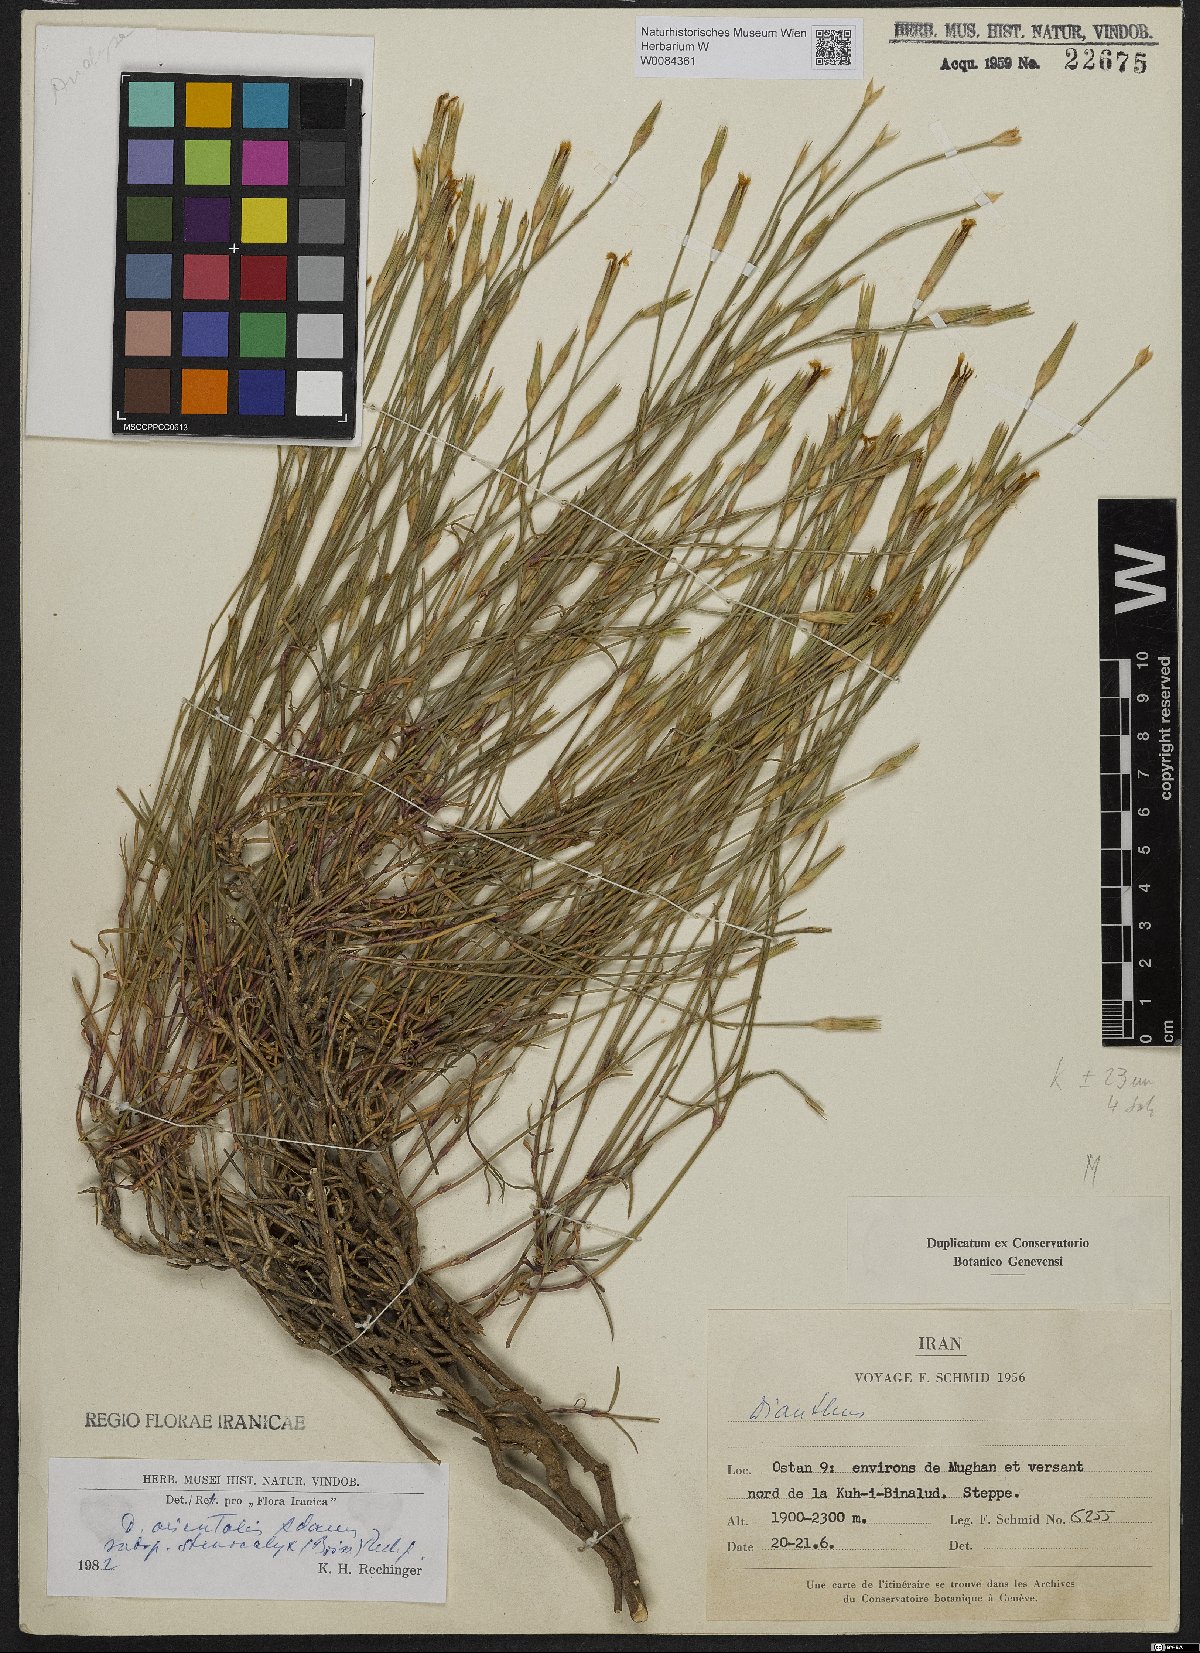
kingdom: Plantae
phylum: Tracheophyta
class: Magnoliopsida
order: Caryophyllales
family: Caryophyllaceae
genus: Dianthus
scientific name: Dianthus orientalis
